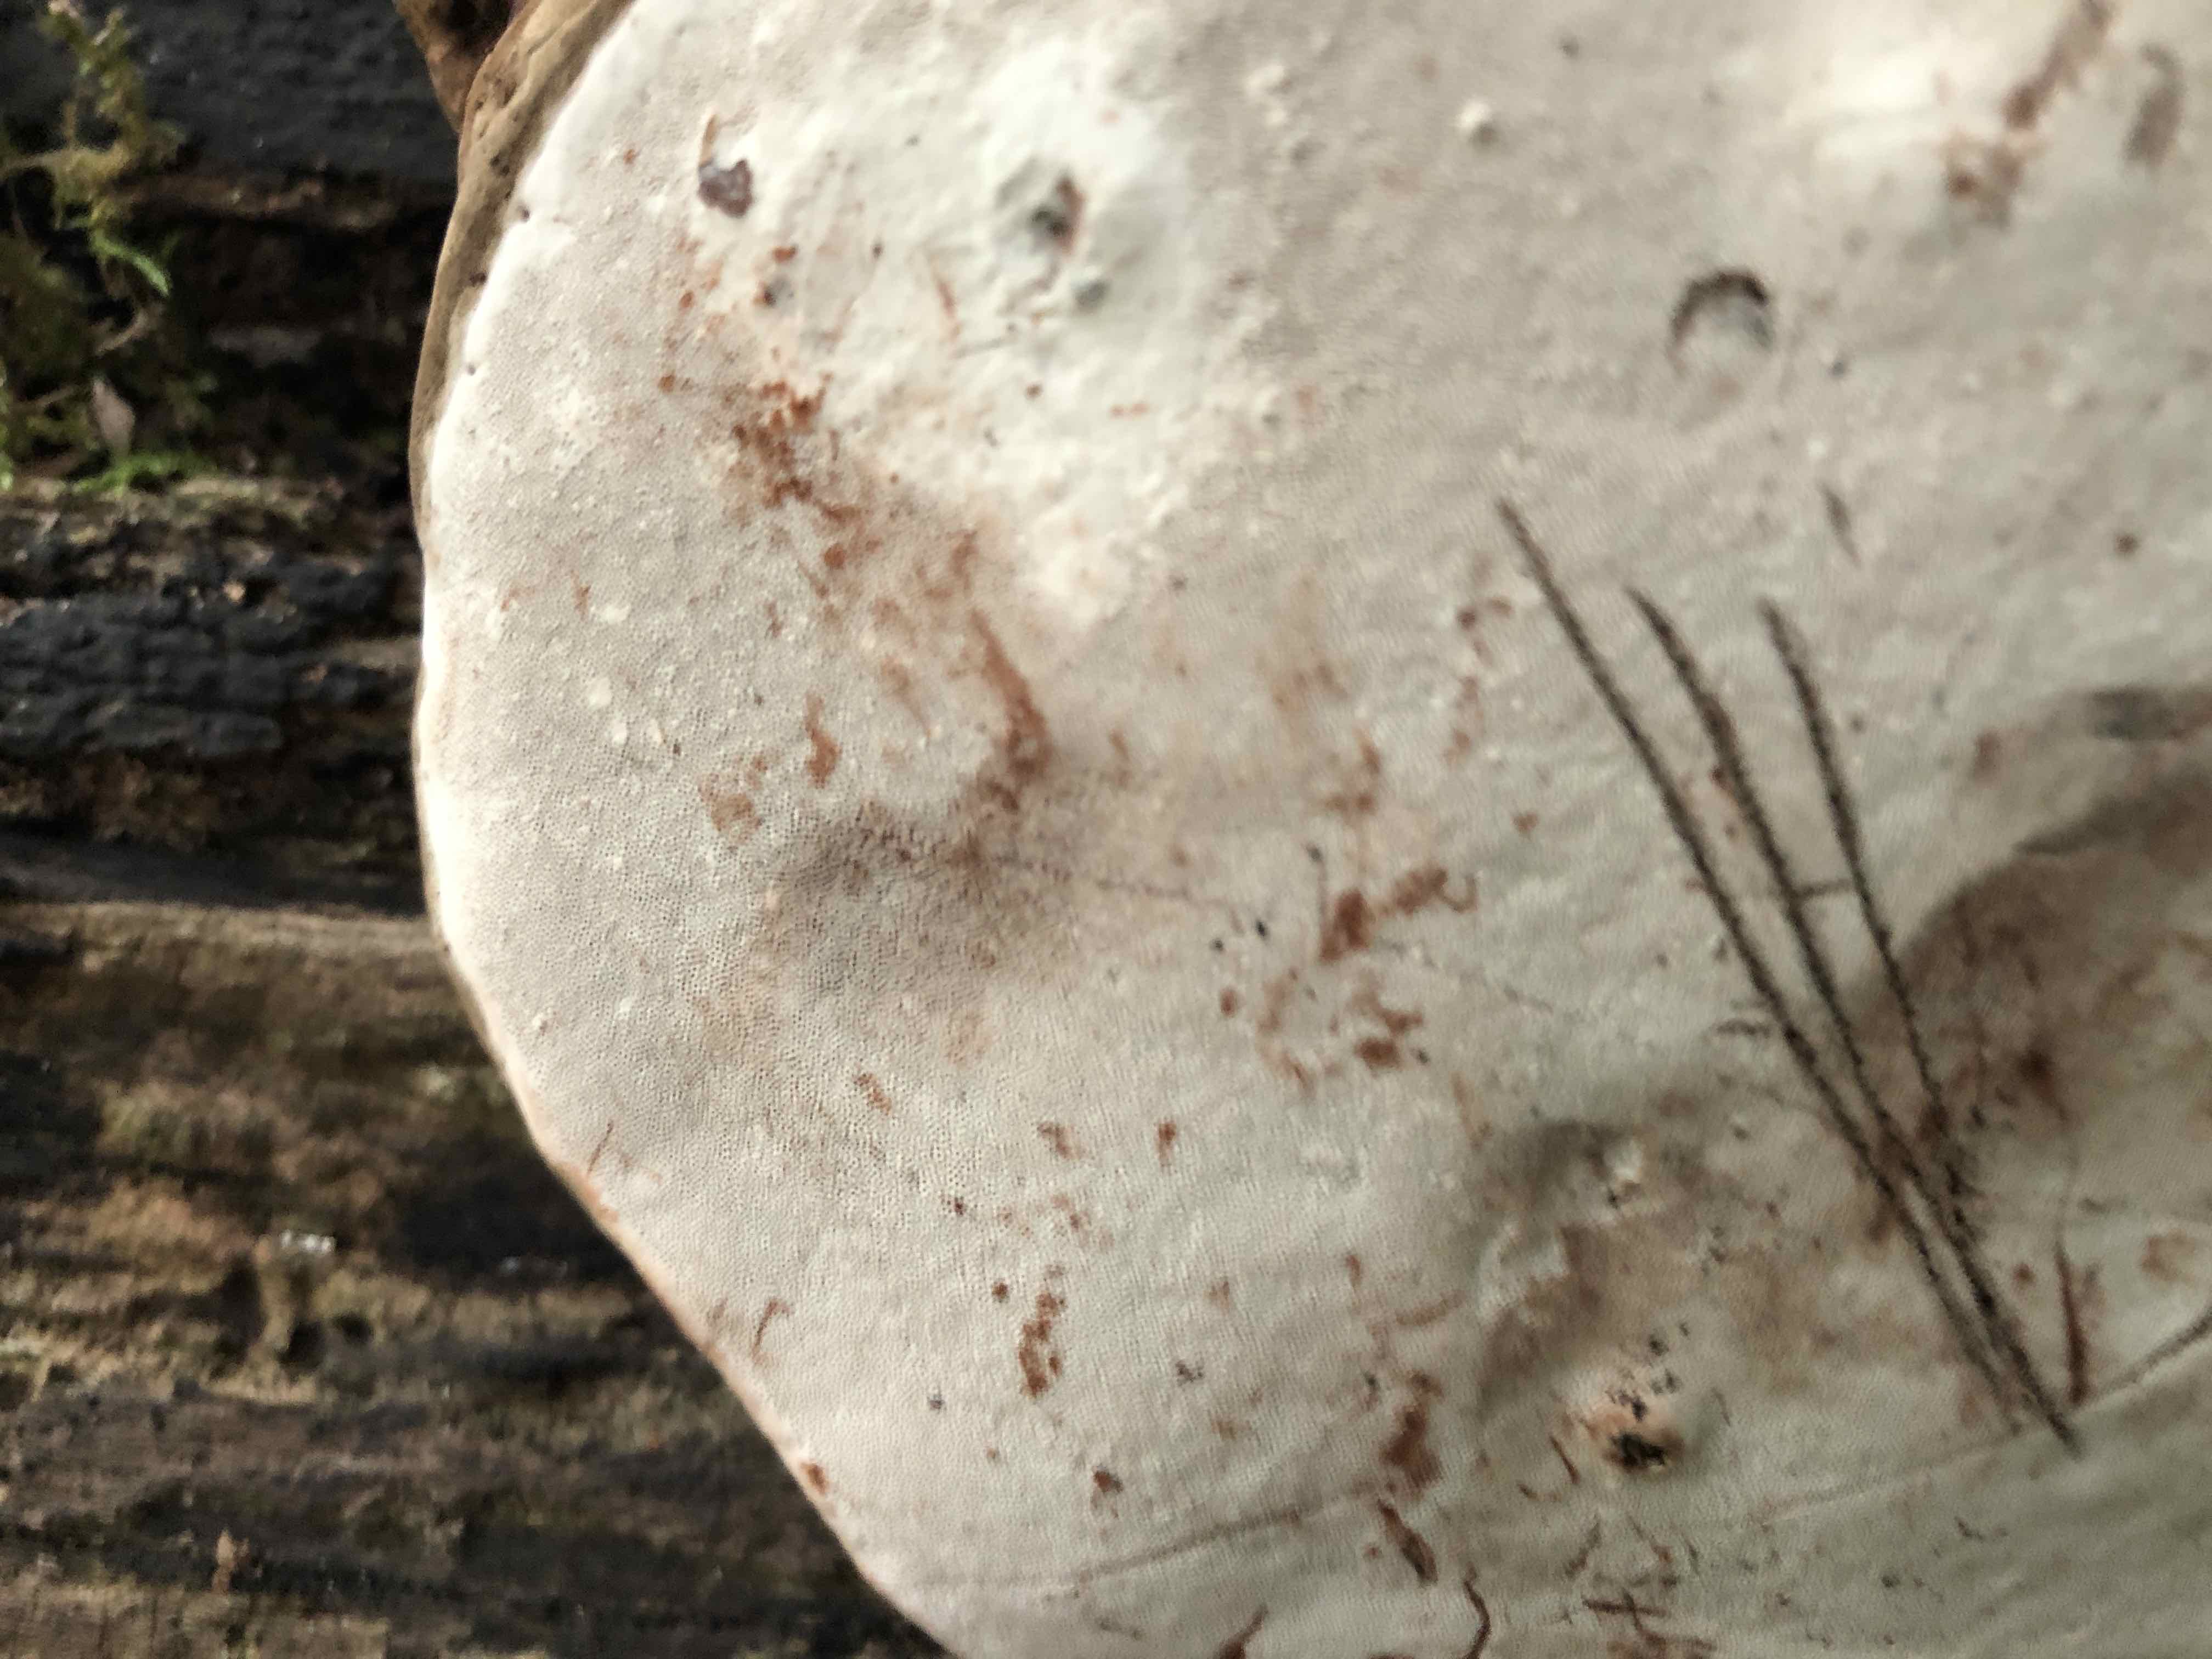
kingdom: Fungi
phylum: Basidiomycota
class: Agaricomycetes
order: Polyporales
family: Polyporaceae
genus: Ganoderma
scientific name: Ganoderma applanatum
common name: flad lakporesvamp
